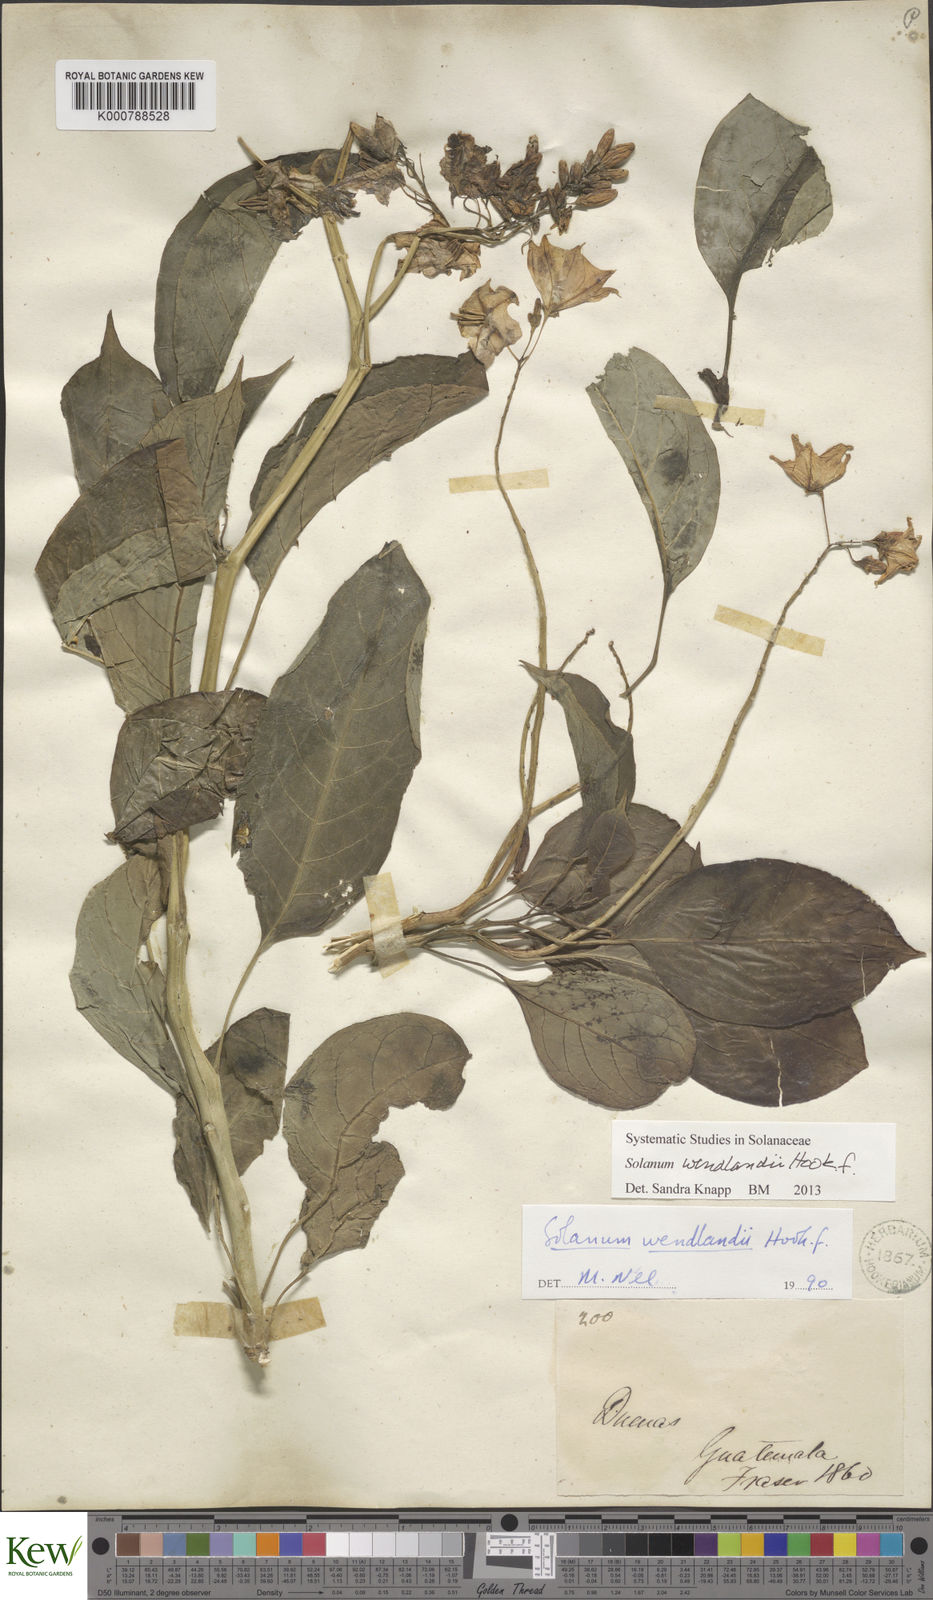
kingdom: Plantae
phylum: Tracheophyta
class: Magnoliopsida
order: Solanales
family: Solanaceae
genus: Solanum
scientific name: Solanum wendlandii
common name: Costa rican nightshade
